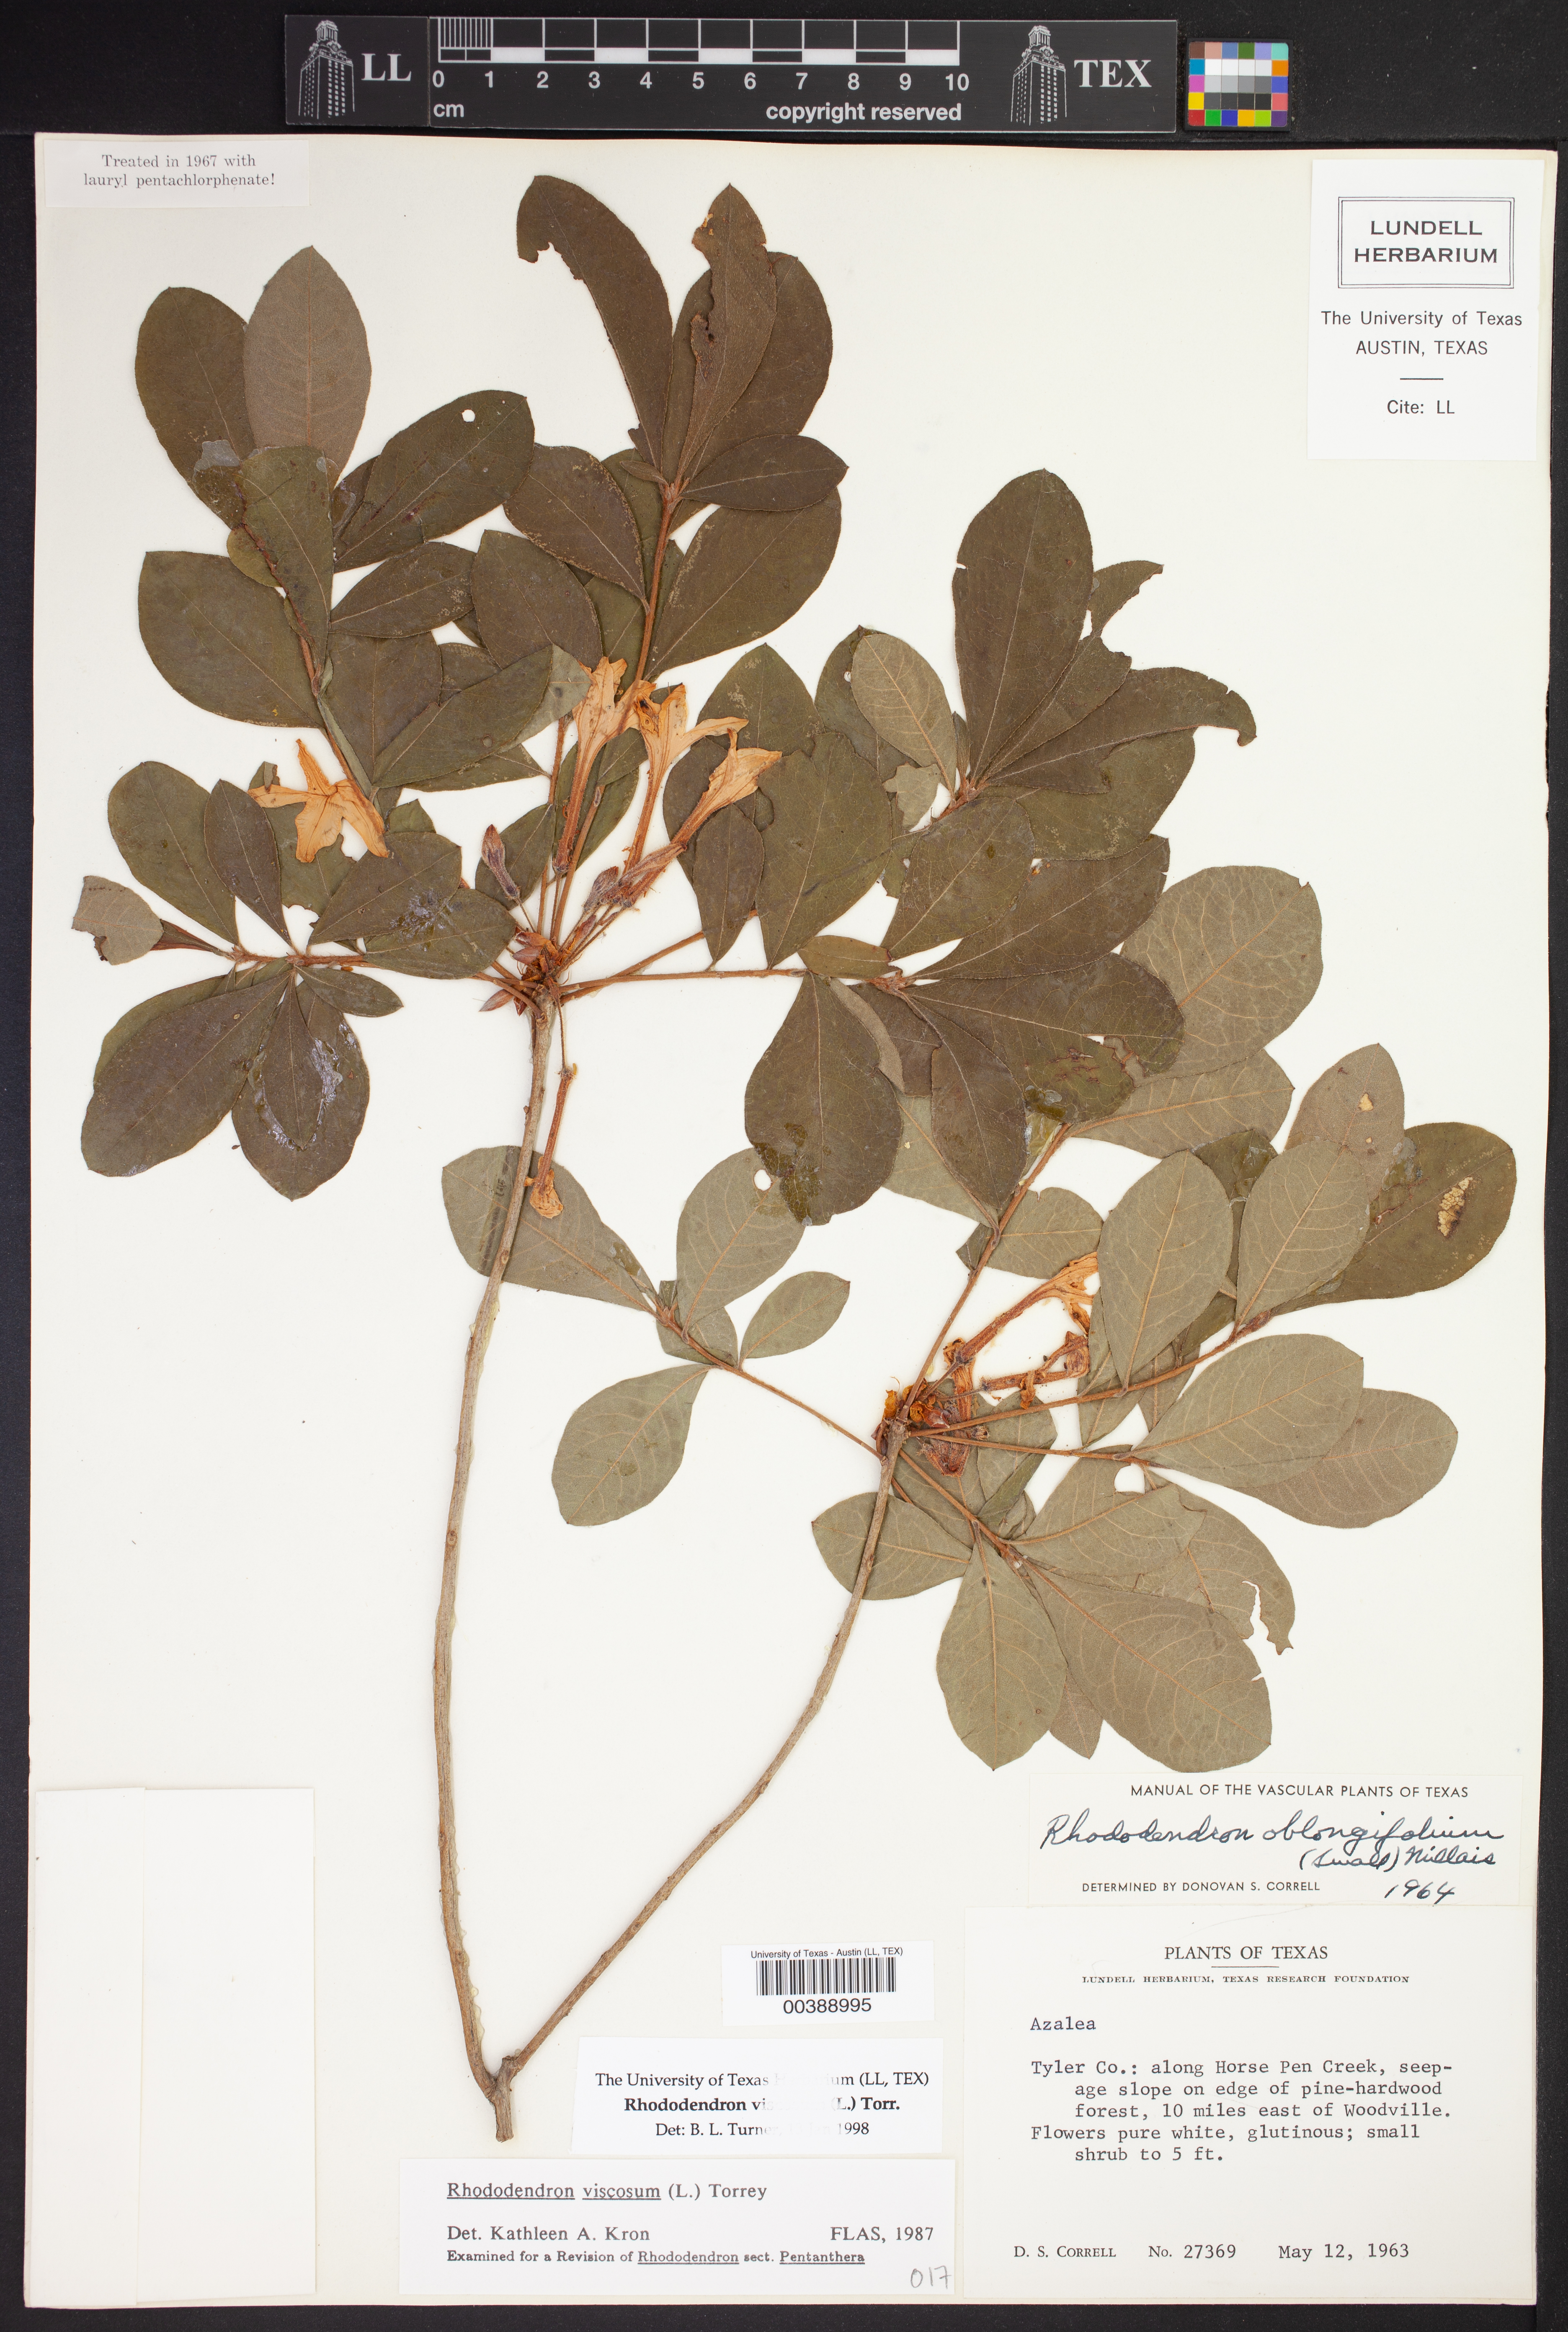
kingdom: Plantae
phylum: Tracheophyta
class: Magnoliopsida
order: Ericales
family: Ericaceae
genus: Rhododendron
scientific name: Rhododendron viscosum
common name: Clammy azalea
